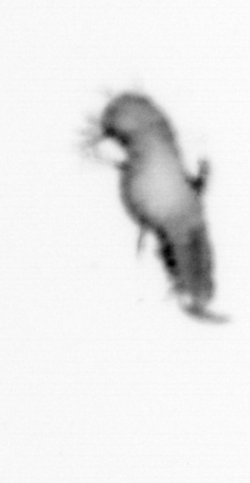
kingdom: Animalia
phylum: Annelida
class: Polychaeta
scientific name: Polychaeta
